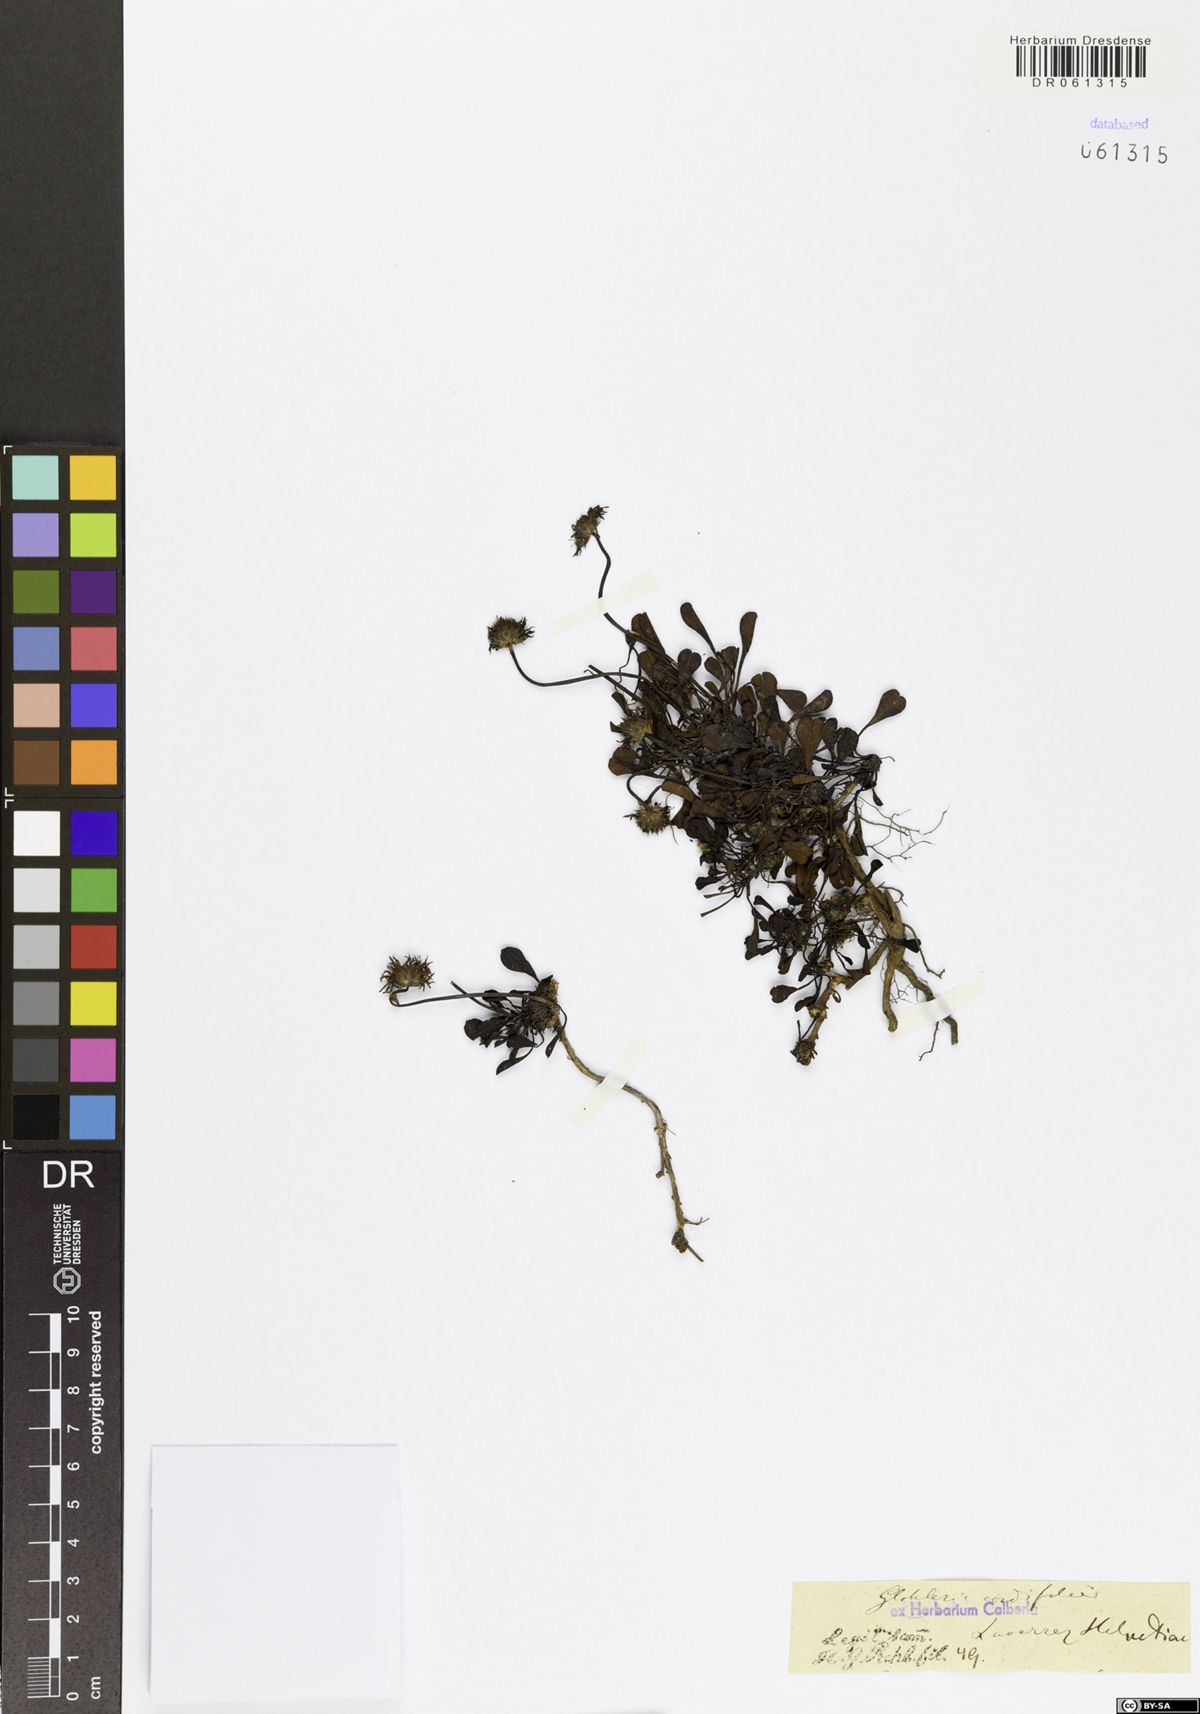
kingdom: Plantae
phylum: Tracheophyta
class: Magnoliopsida
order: Lamiales
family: Plantaginaceae
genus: Globularia
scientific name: Globularia cordifolia
